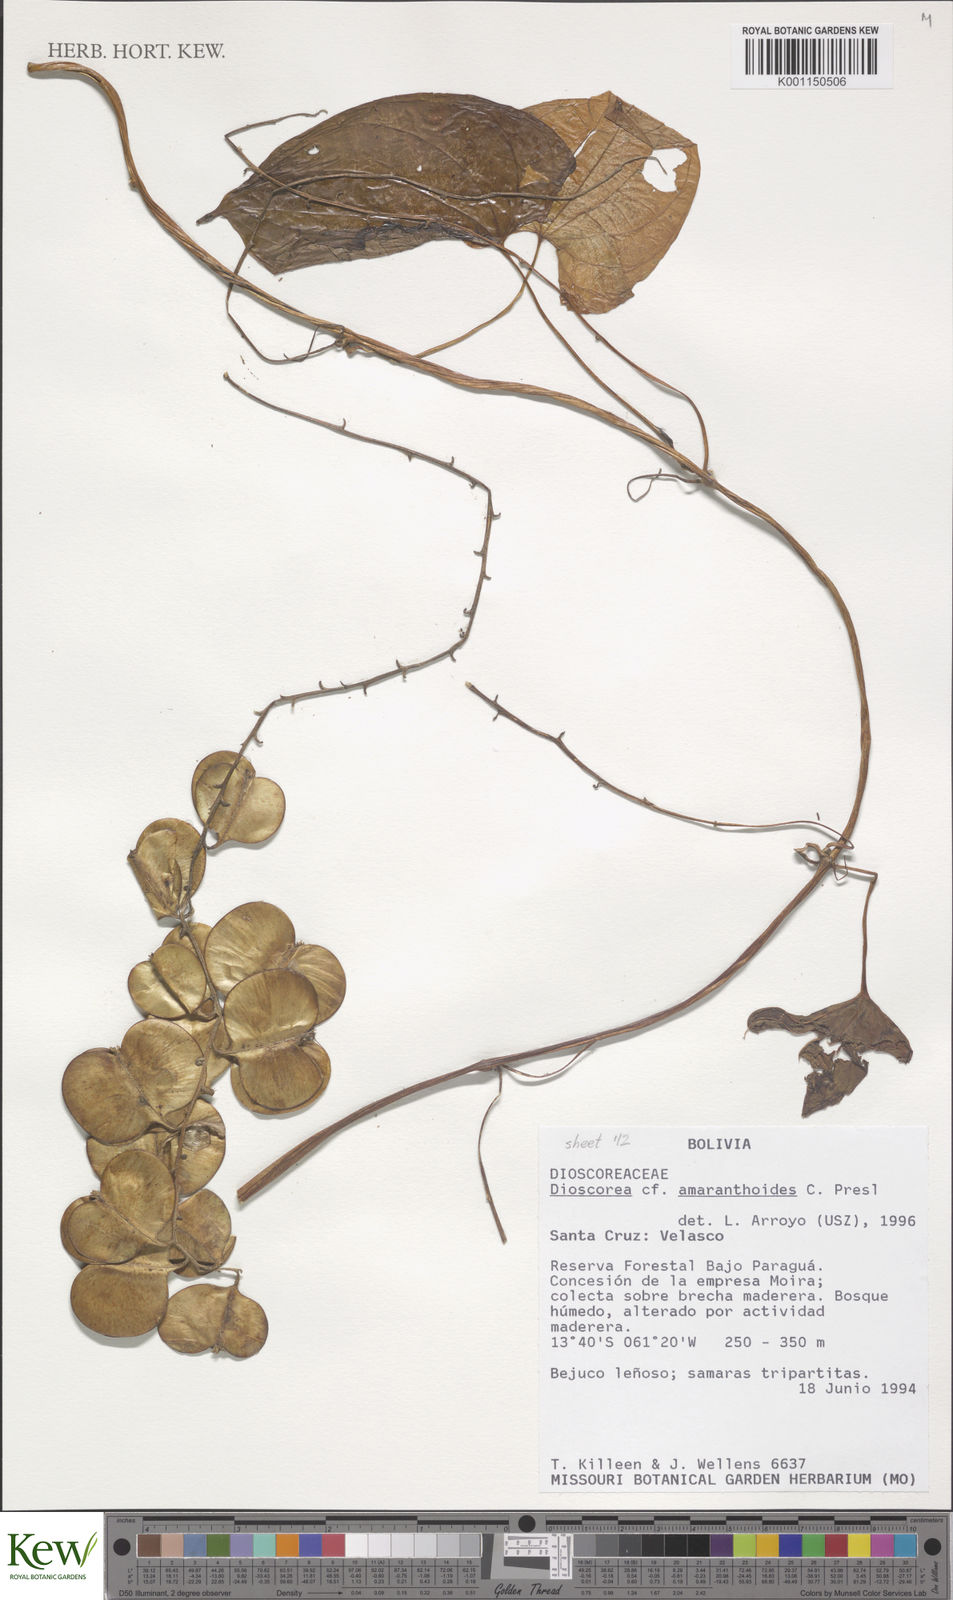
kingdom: Plantae
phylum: Tracheophyta
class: Liliopsida
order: Dioscoreales
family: Dioscoreaceae
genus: Dioscorea
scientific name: Dioscorea dodecaneura
